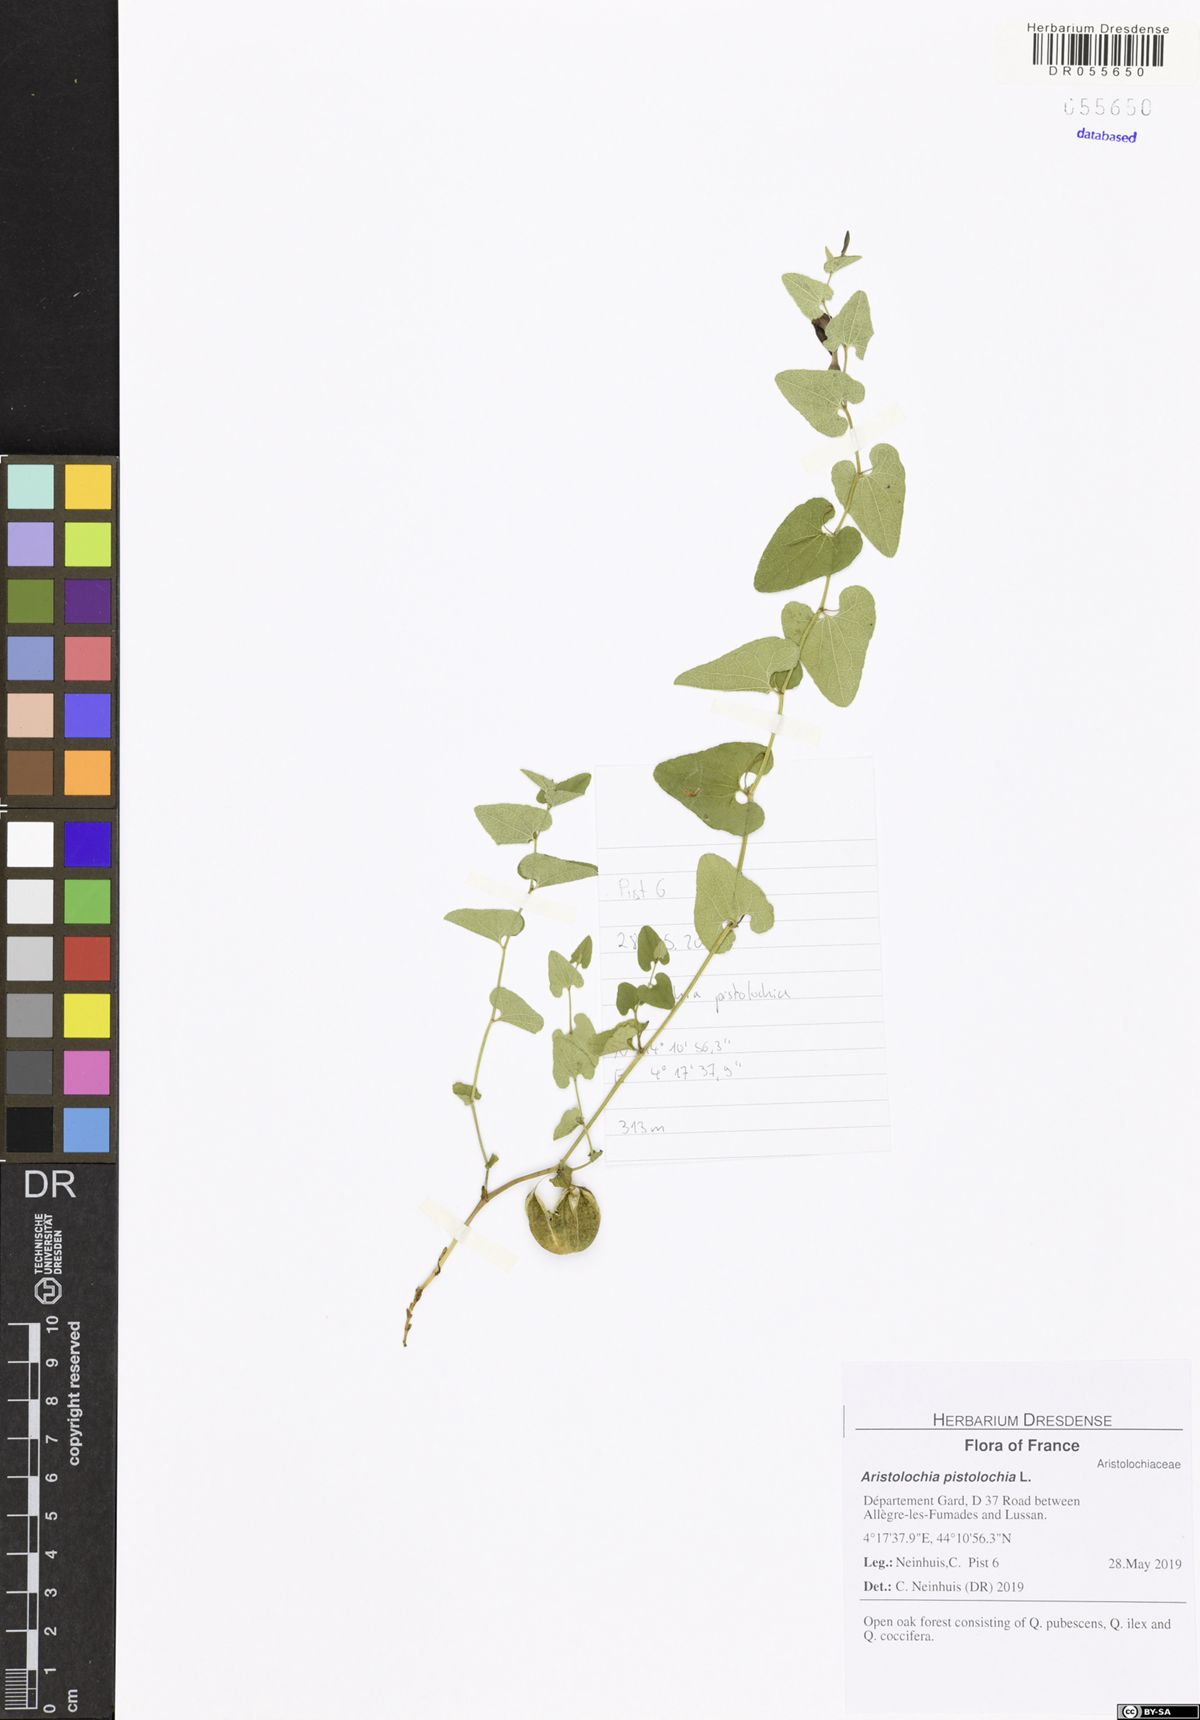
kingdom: Plantae
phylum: Tracheophyta
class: Magnoliopsida
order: Piperales
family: Aristolochiaceae
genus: Aristolochia
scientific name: Aristolochia pistolochia
